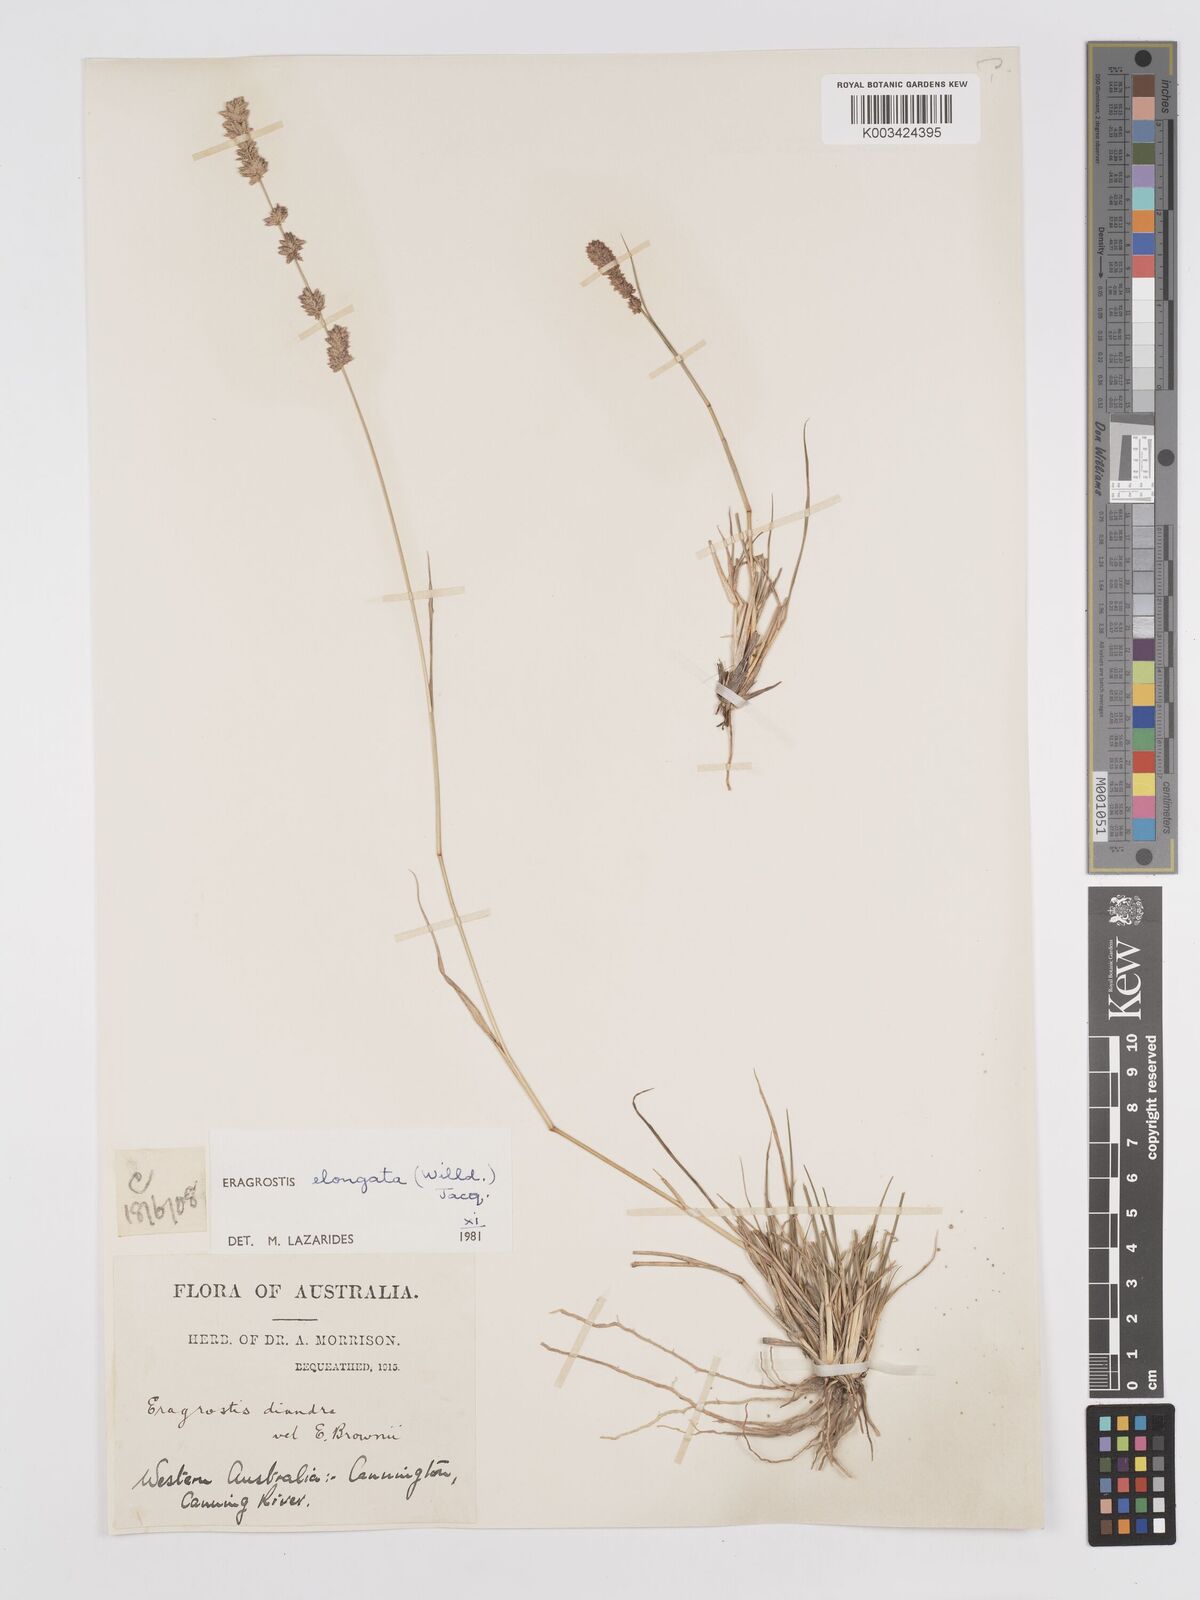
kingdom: Plantae
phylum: Tracheophyta
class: Liliopsida
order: Poales
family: Poaceae
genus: Eragrostis
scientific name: Eragrostis elongata
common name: Long lovegrass
